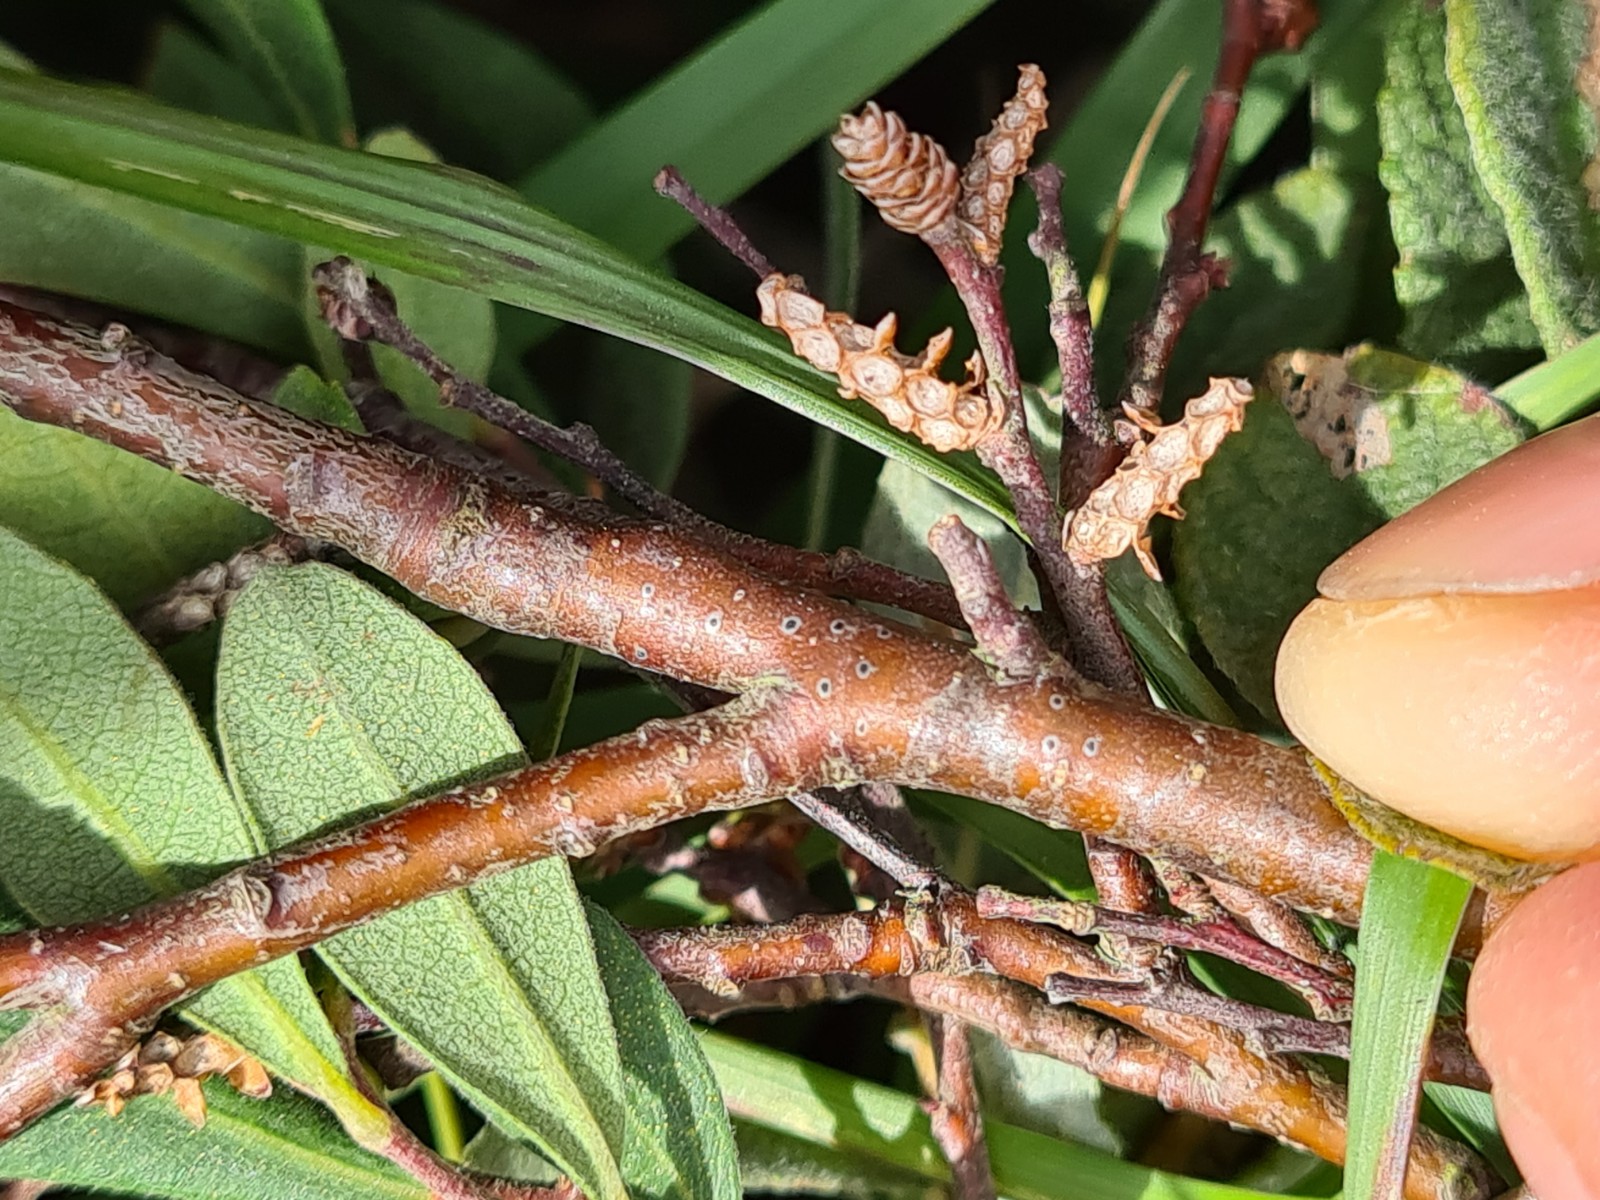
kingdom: Fungi
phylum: Ascomycota
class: Dothideomycetes
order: Dothideales
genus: Mycoglaena
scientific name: Mycoglaena myricae
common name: liden porsprik
